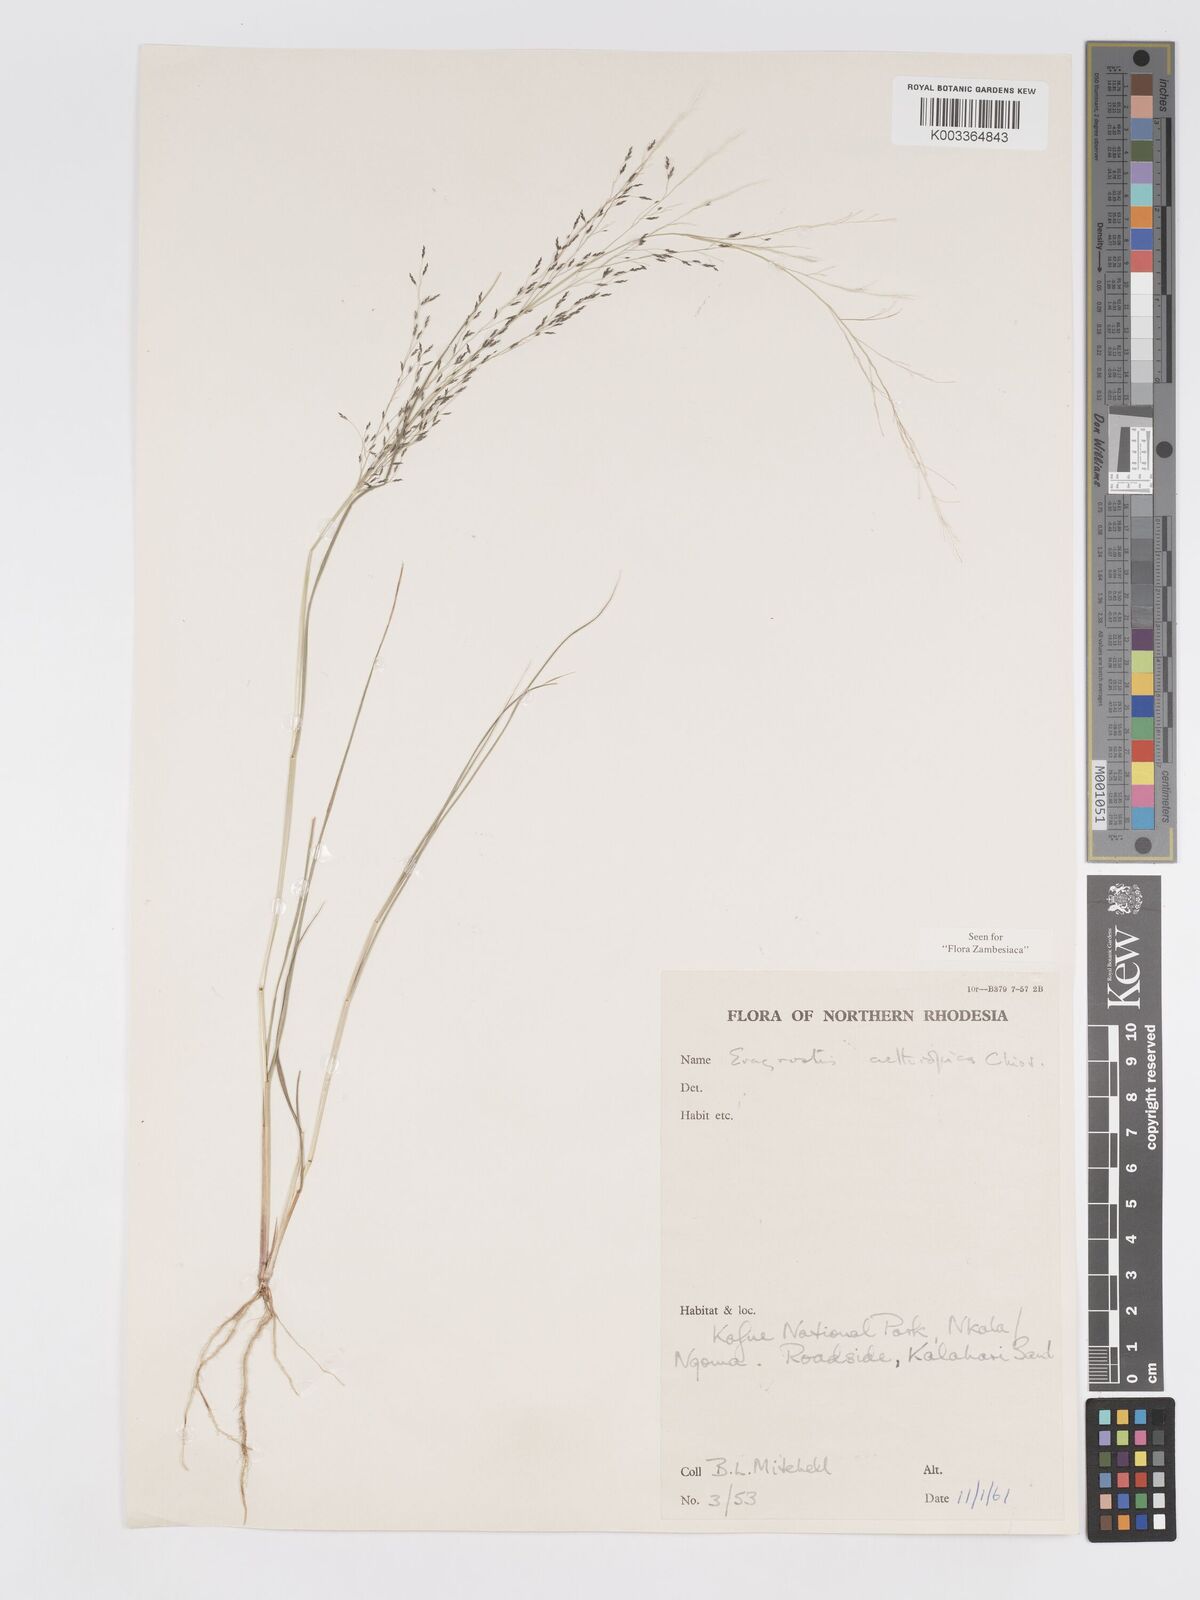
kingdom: Plantae
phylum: Tracheophyta
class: Liliopsida
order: Poales
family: Poaceae
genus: Eragrostis
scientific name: Eragrostis aethiopica
